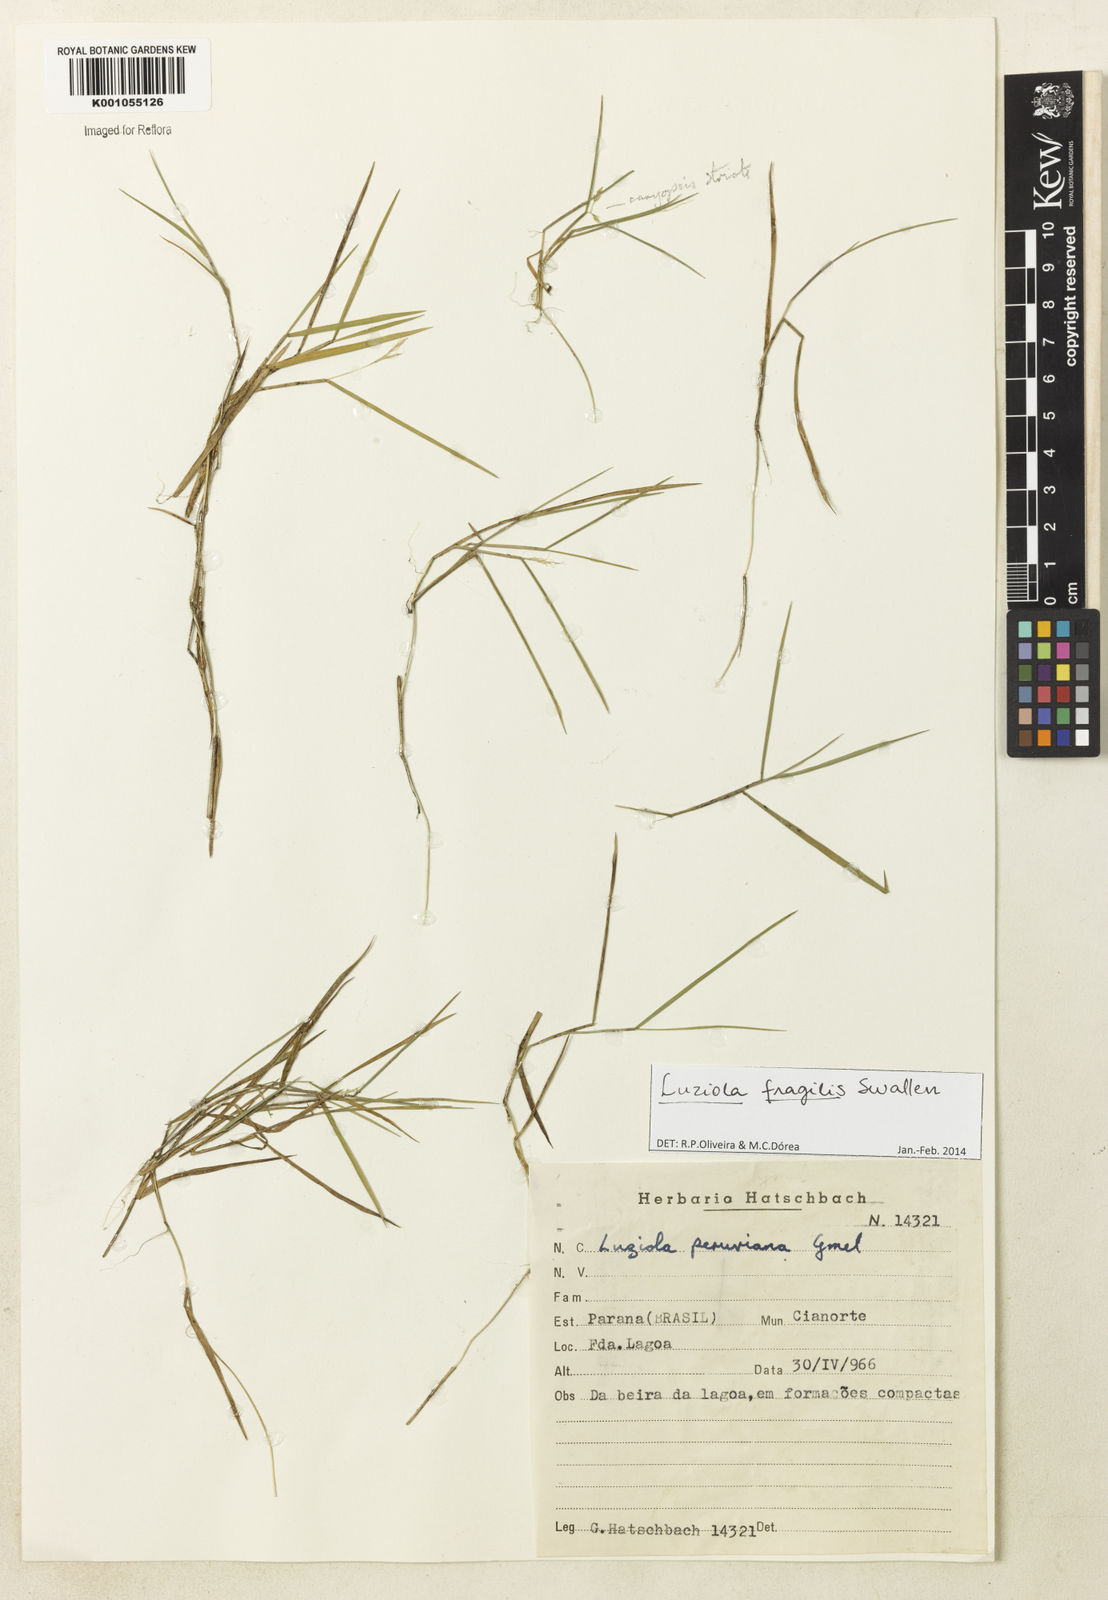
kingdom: Plantae
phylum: Tracheophyta
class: Liliopsida
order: Poales
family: Poaceae
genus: Luziola
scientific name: Luziola fragilis
